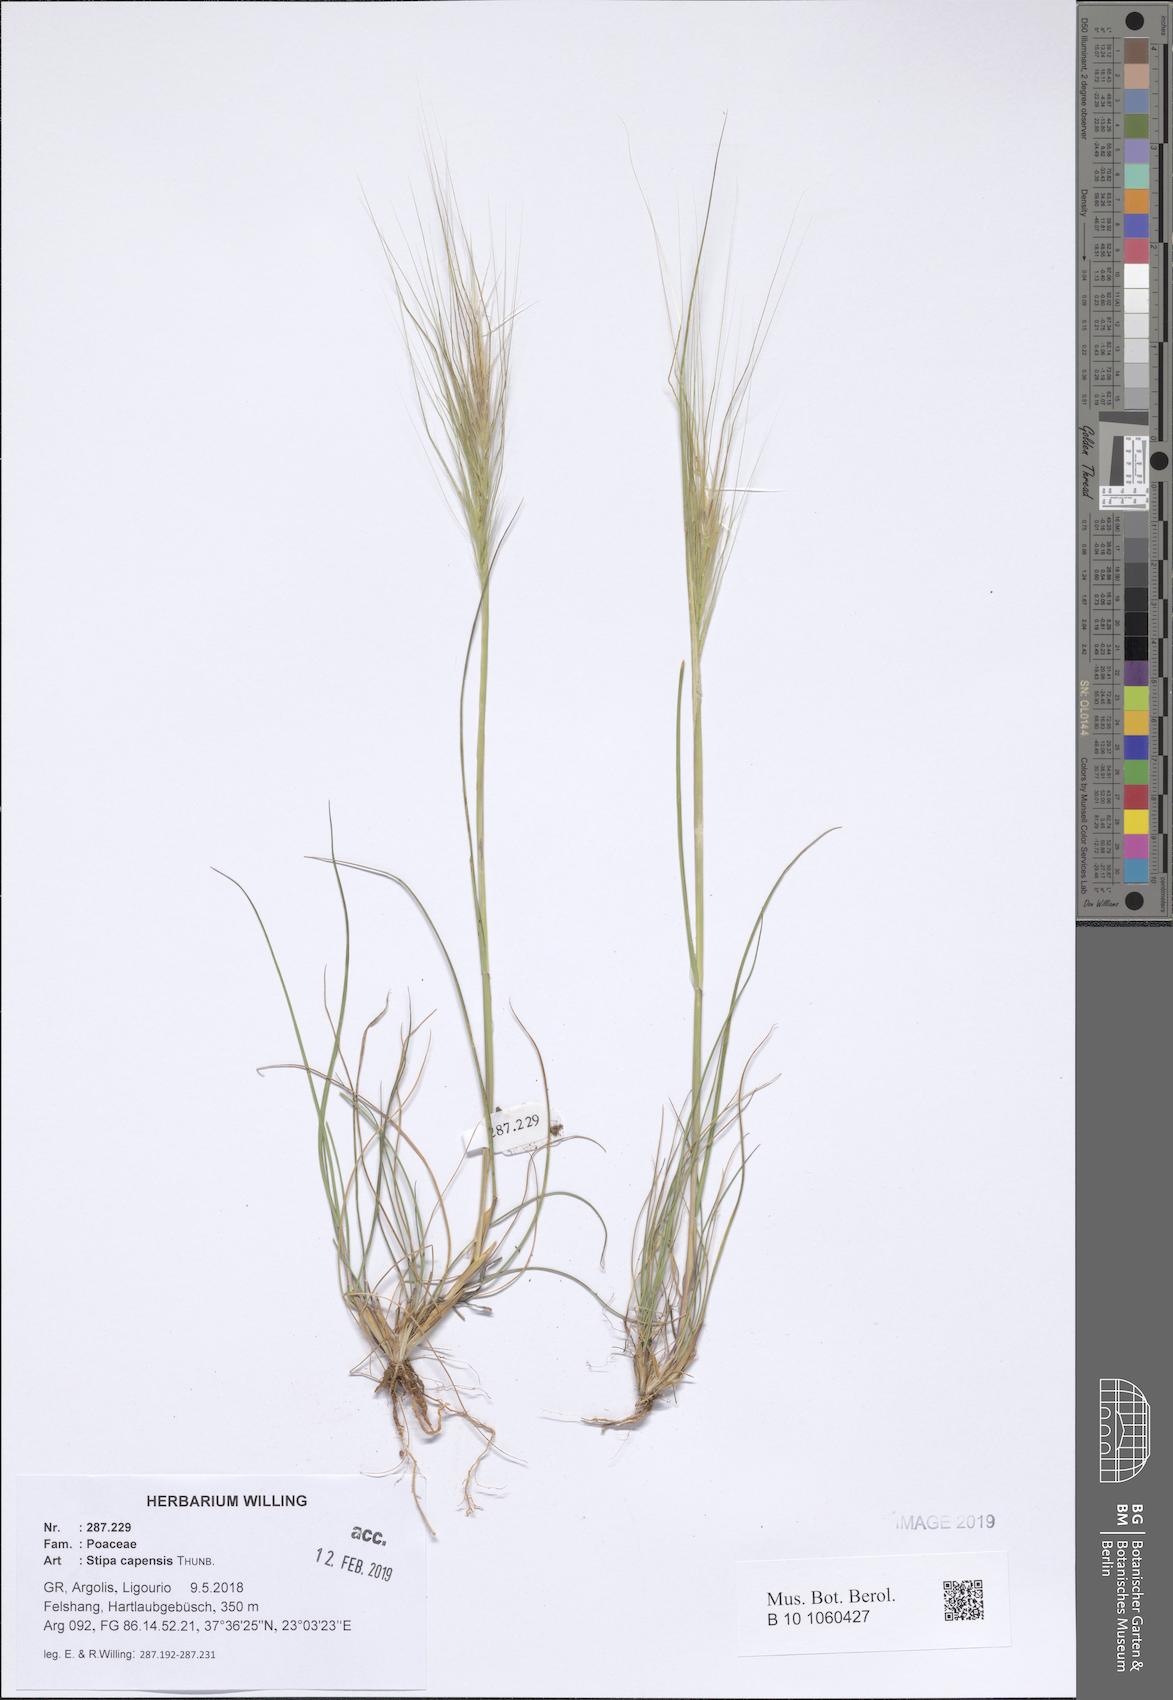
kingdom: Plantae
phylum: Tracheophyta
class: Liliopsida
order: Poales
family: Poaceae
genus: Stipellula
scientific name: Stipellula capensis
